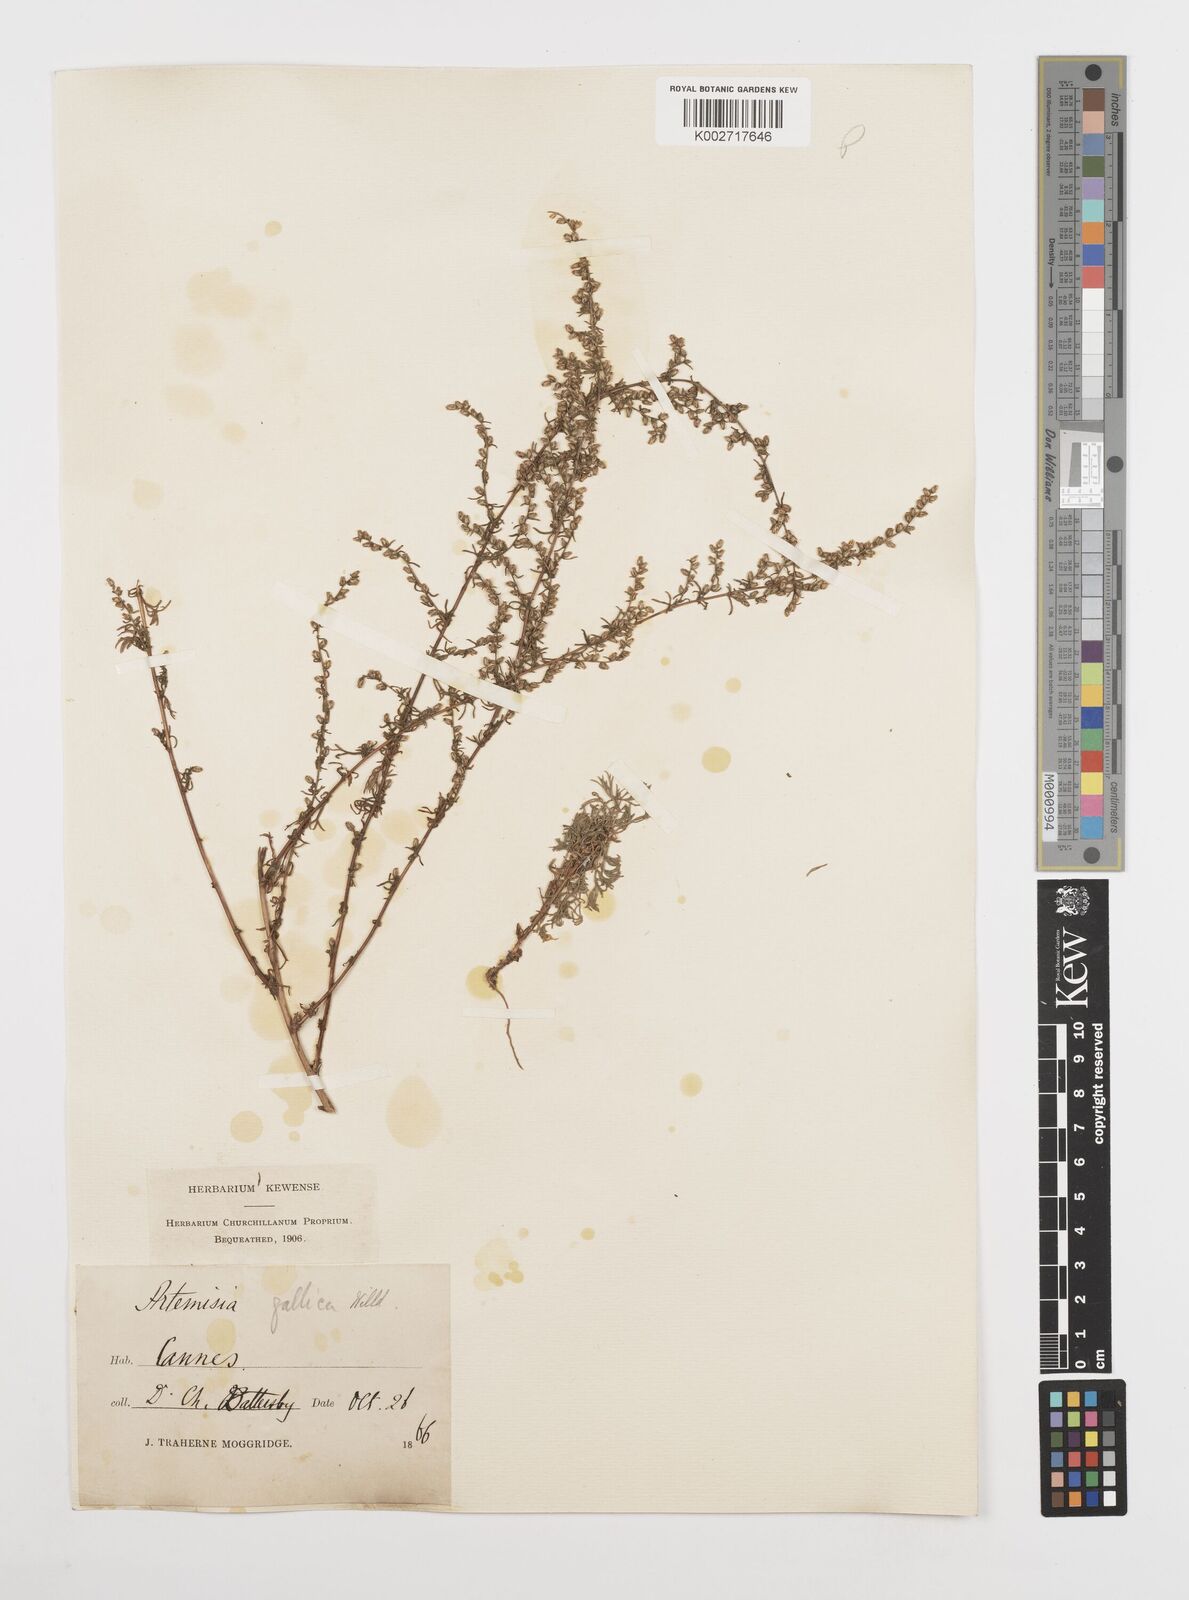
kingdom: Plantae
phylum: Tracheophyta
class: Magnoliopsida
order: Asterales
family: Asteraceae
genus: Artemisia
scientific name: Artemisia campestris
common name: Field wormwood
